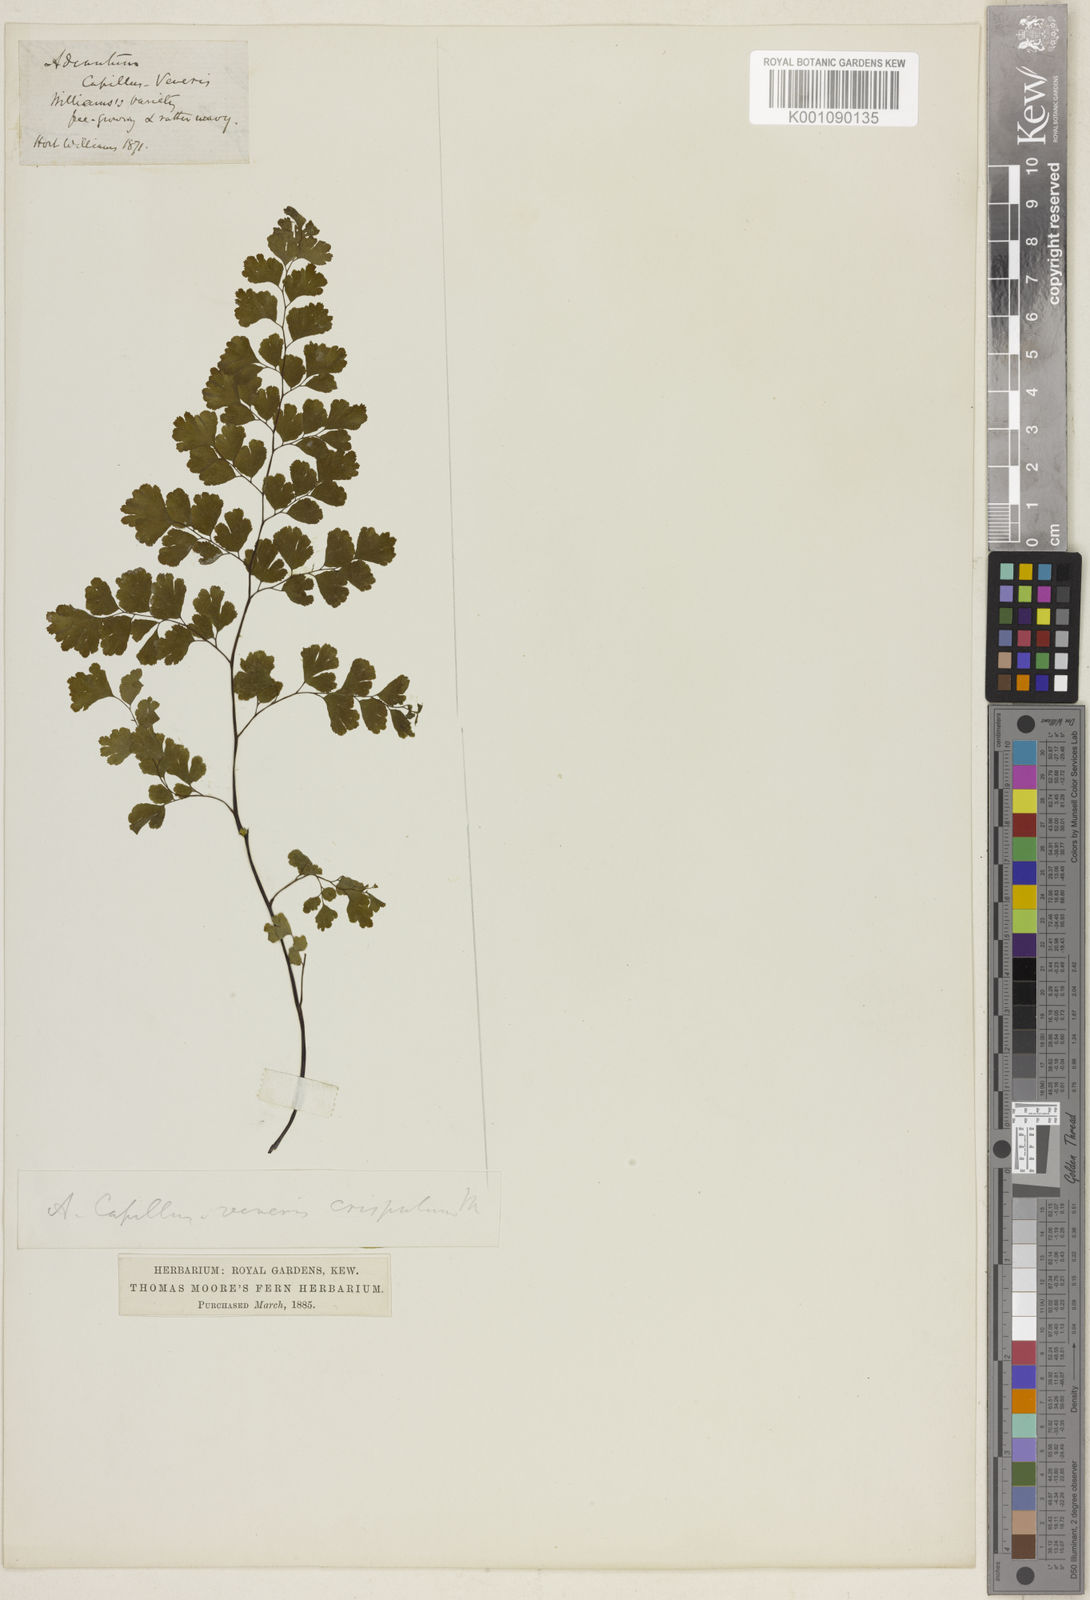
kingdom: Plantae
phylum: Tracheophyta
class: Polypodiopsida
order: Polypodiales
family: Pteridaceae
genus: Adiantum
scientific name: Adiantum capillus-veneris
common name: Maidenhair fern
